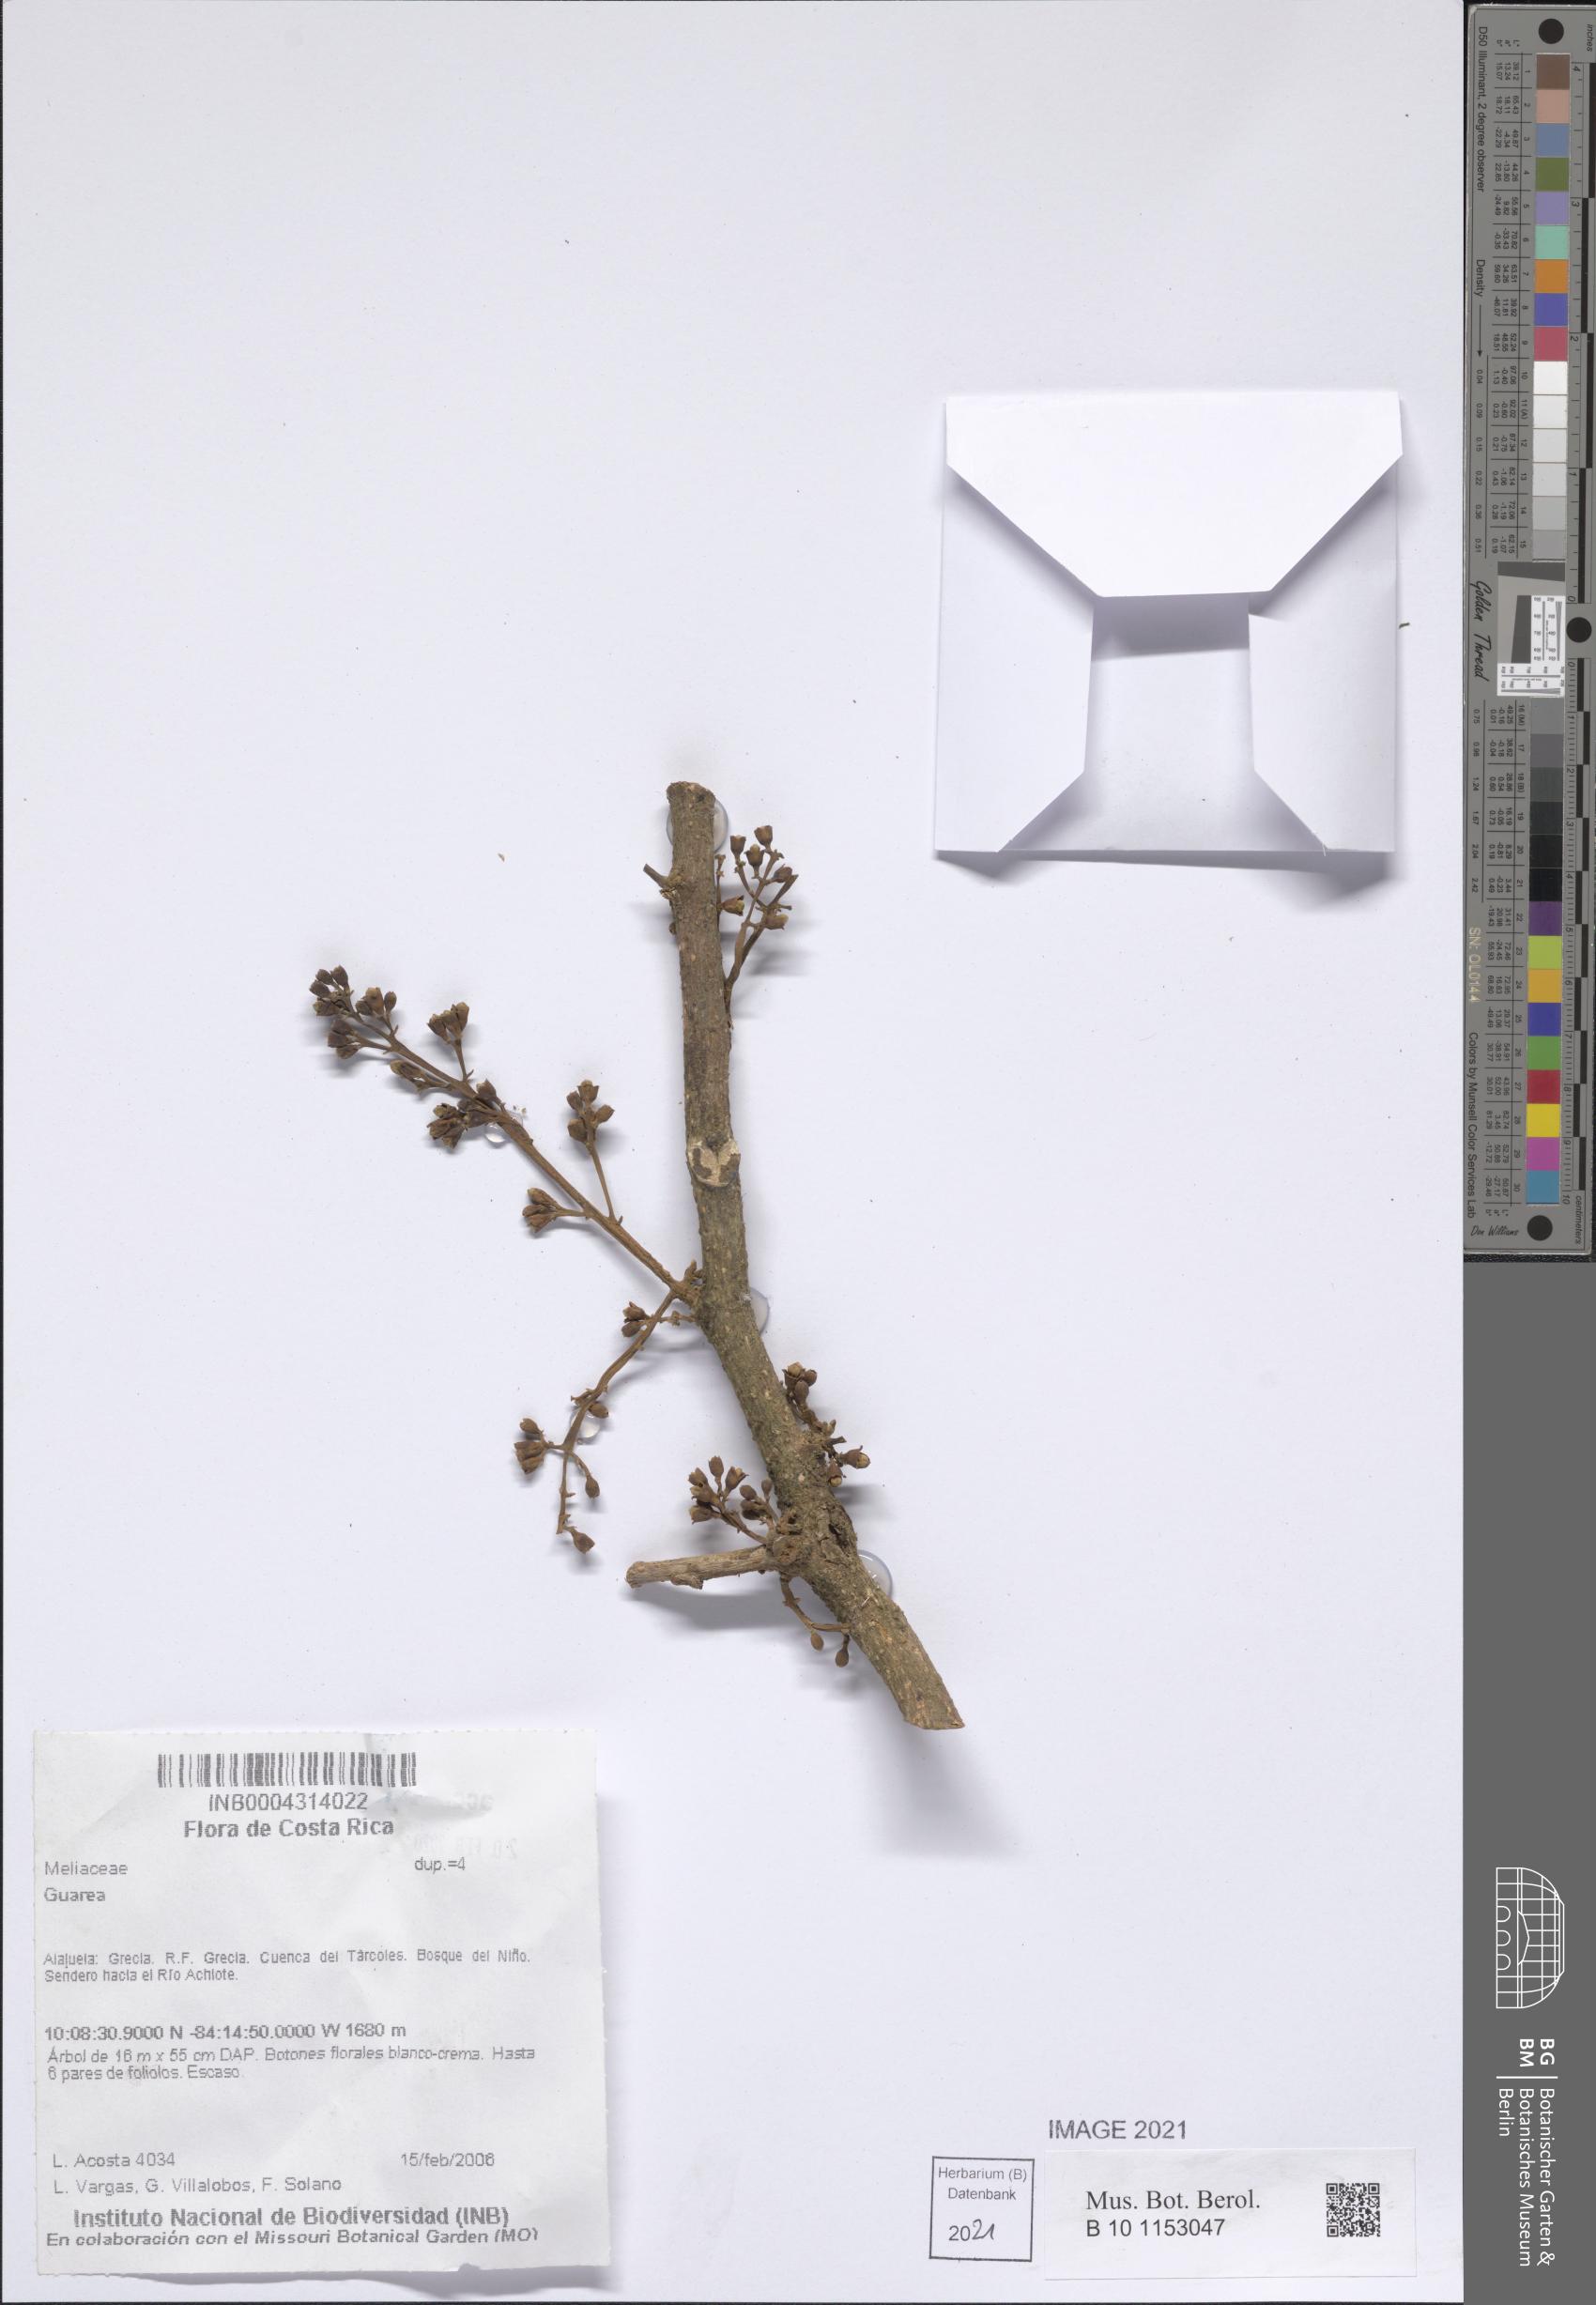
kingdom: Plantae
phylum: Tracheophyta
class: Magnoliopsida
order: Sapindales
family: Meliaceae
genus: Guarea
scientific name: Guarea
